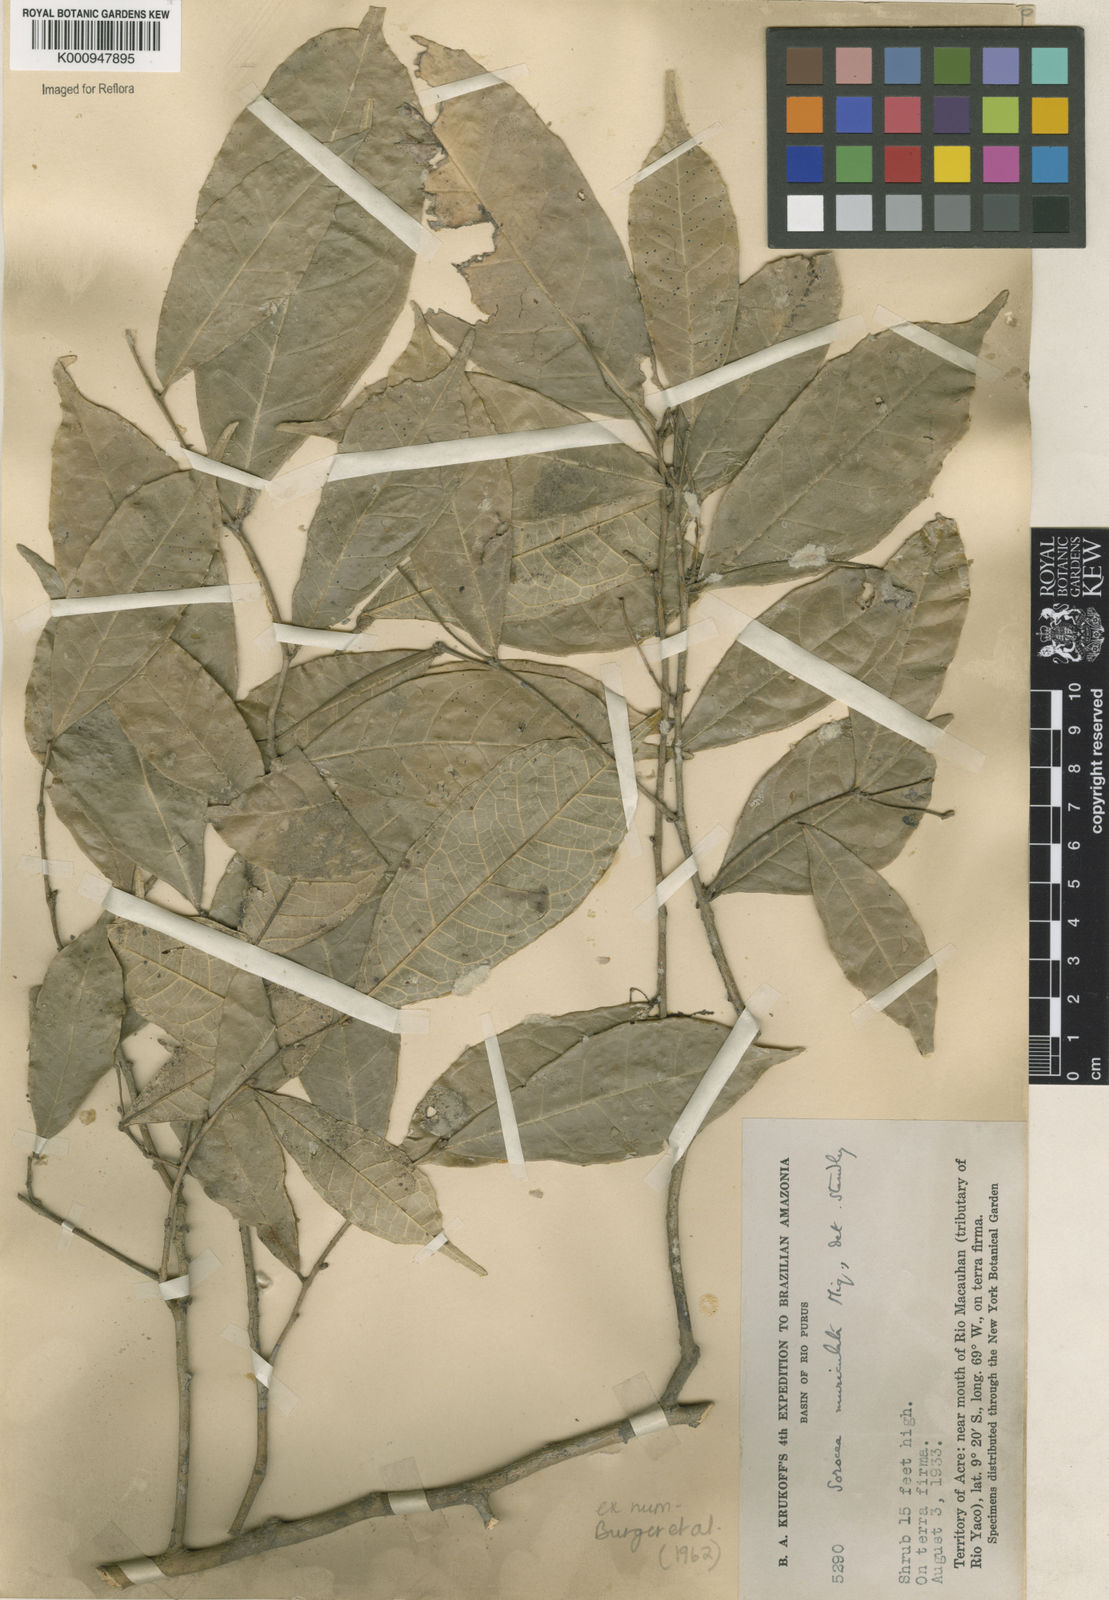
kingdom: Plantae
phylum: Tracheophyta
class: Magnoliopsida
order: Rosales
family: Moraceae
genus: Sorocea
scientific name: Sorocea muriculata
